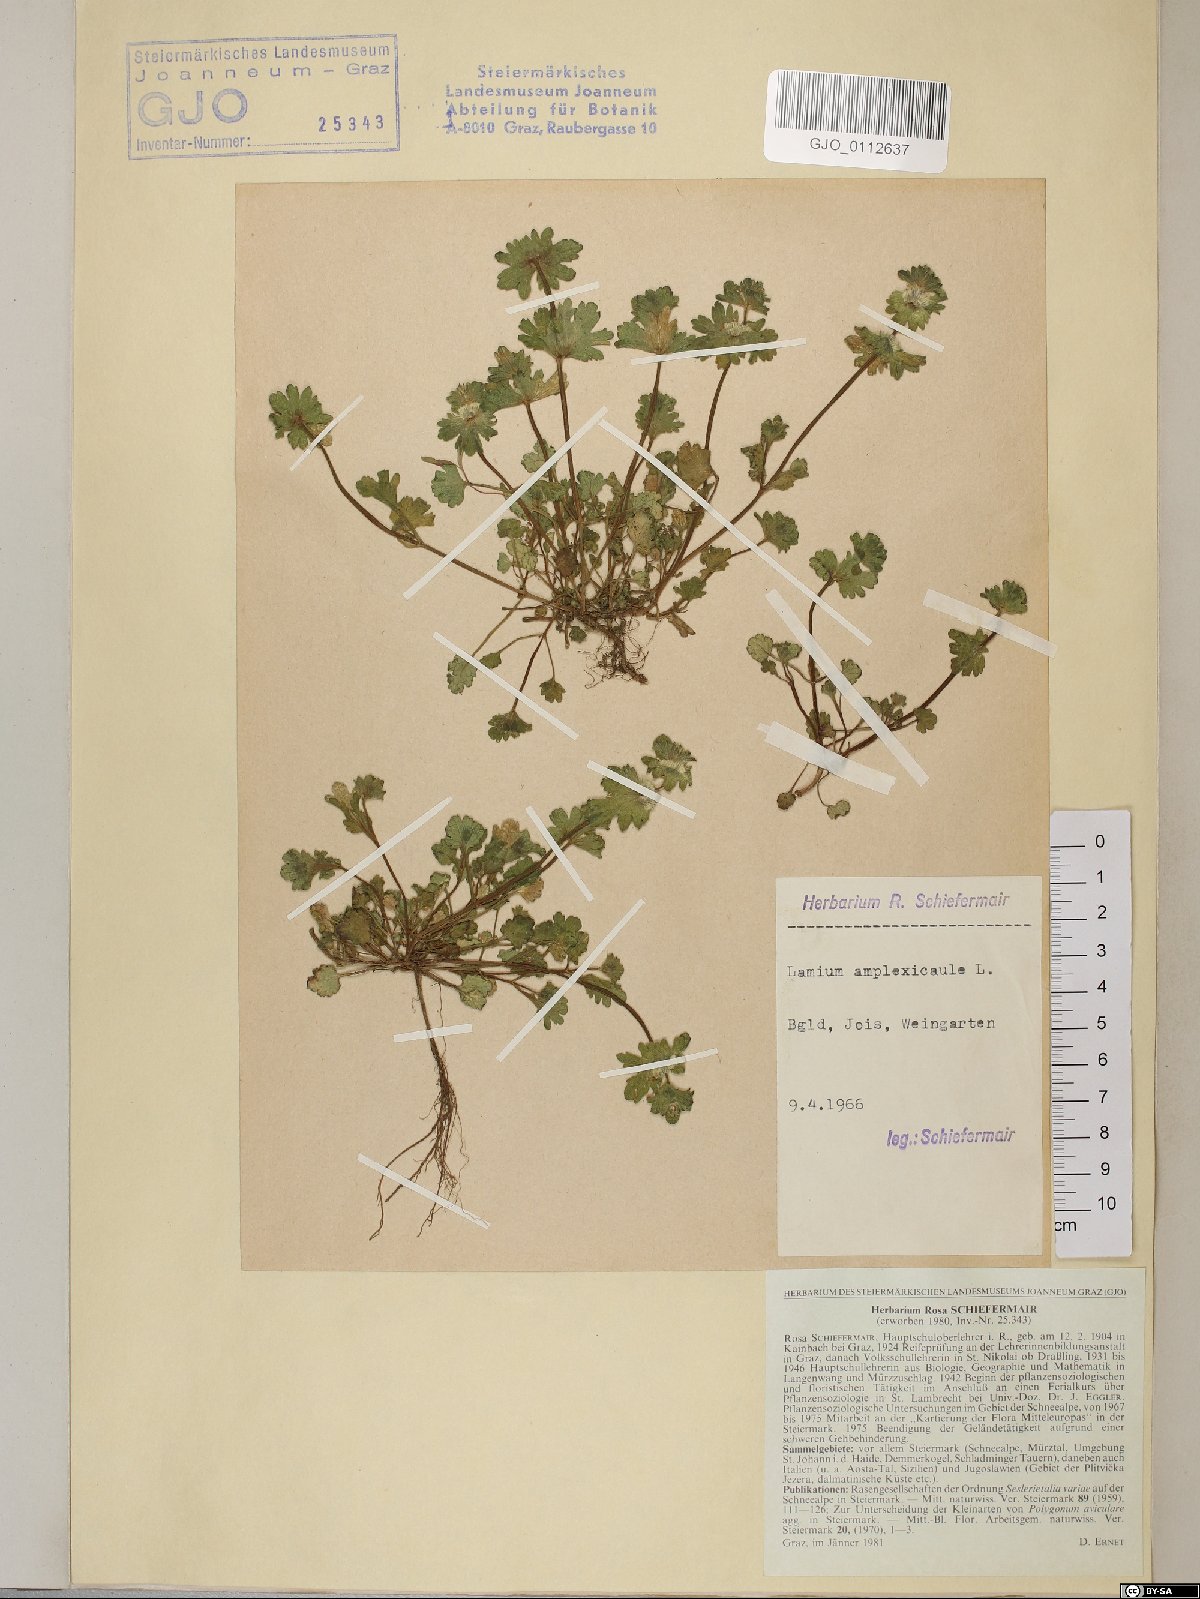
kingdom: Plantae
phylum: Tracheophyta
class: Magnoliopsida
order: Lamiales
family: Lamiaceae
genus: Lamium
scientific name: Lamium amplexicaule
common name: Henbit dead-nettle
